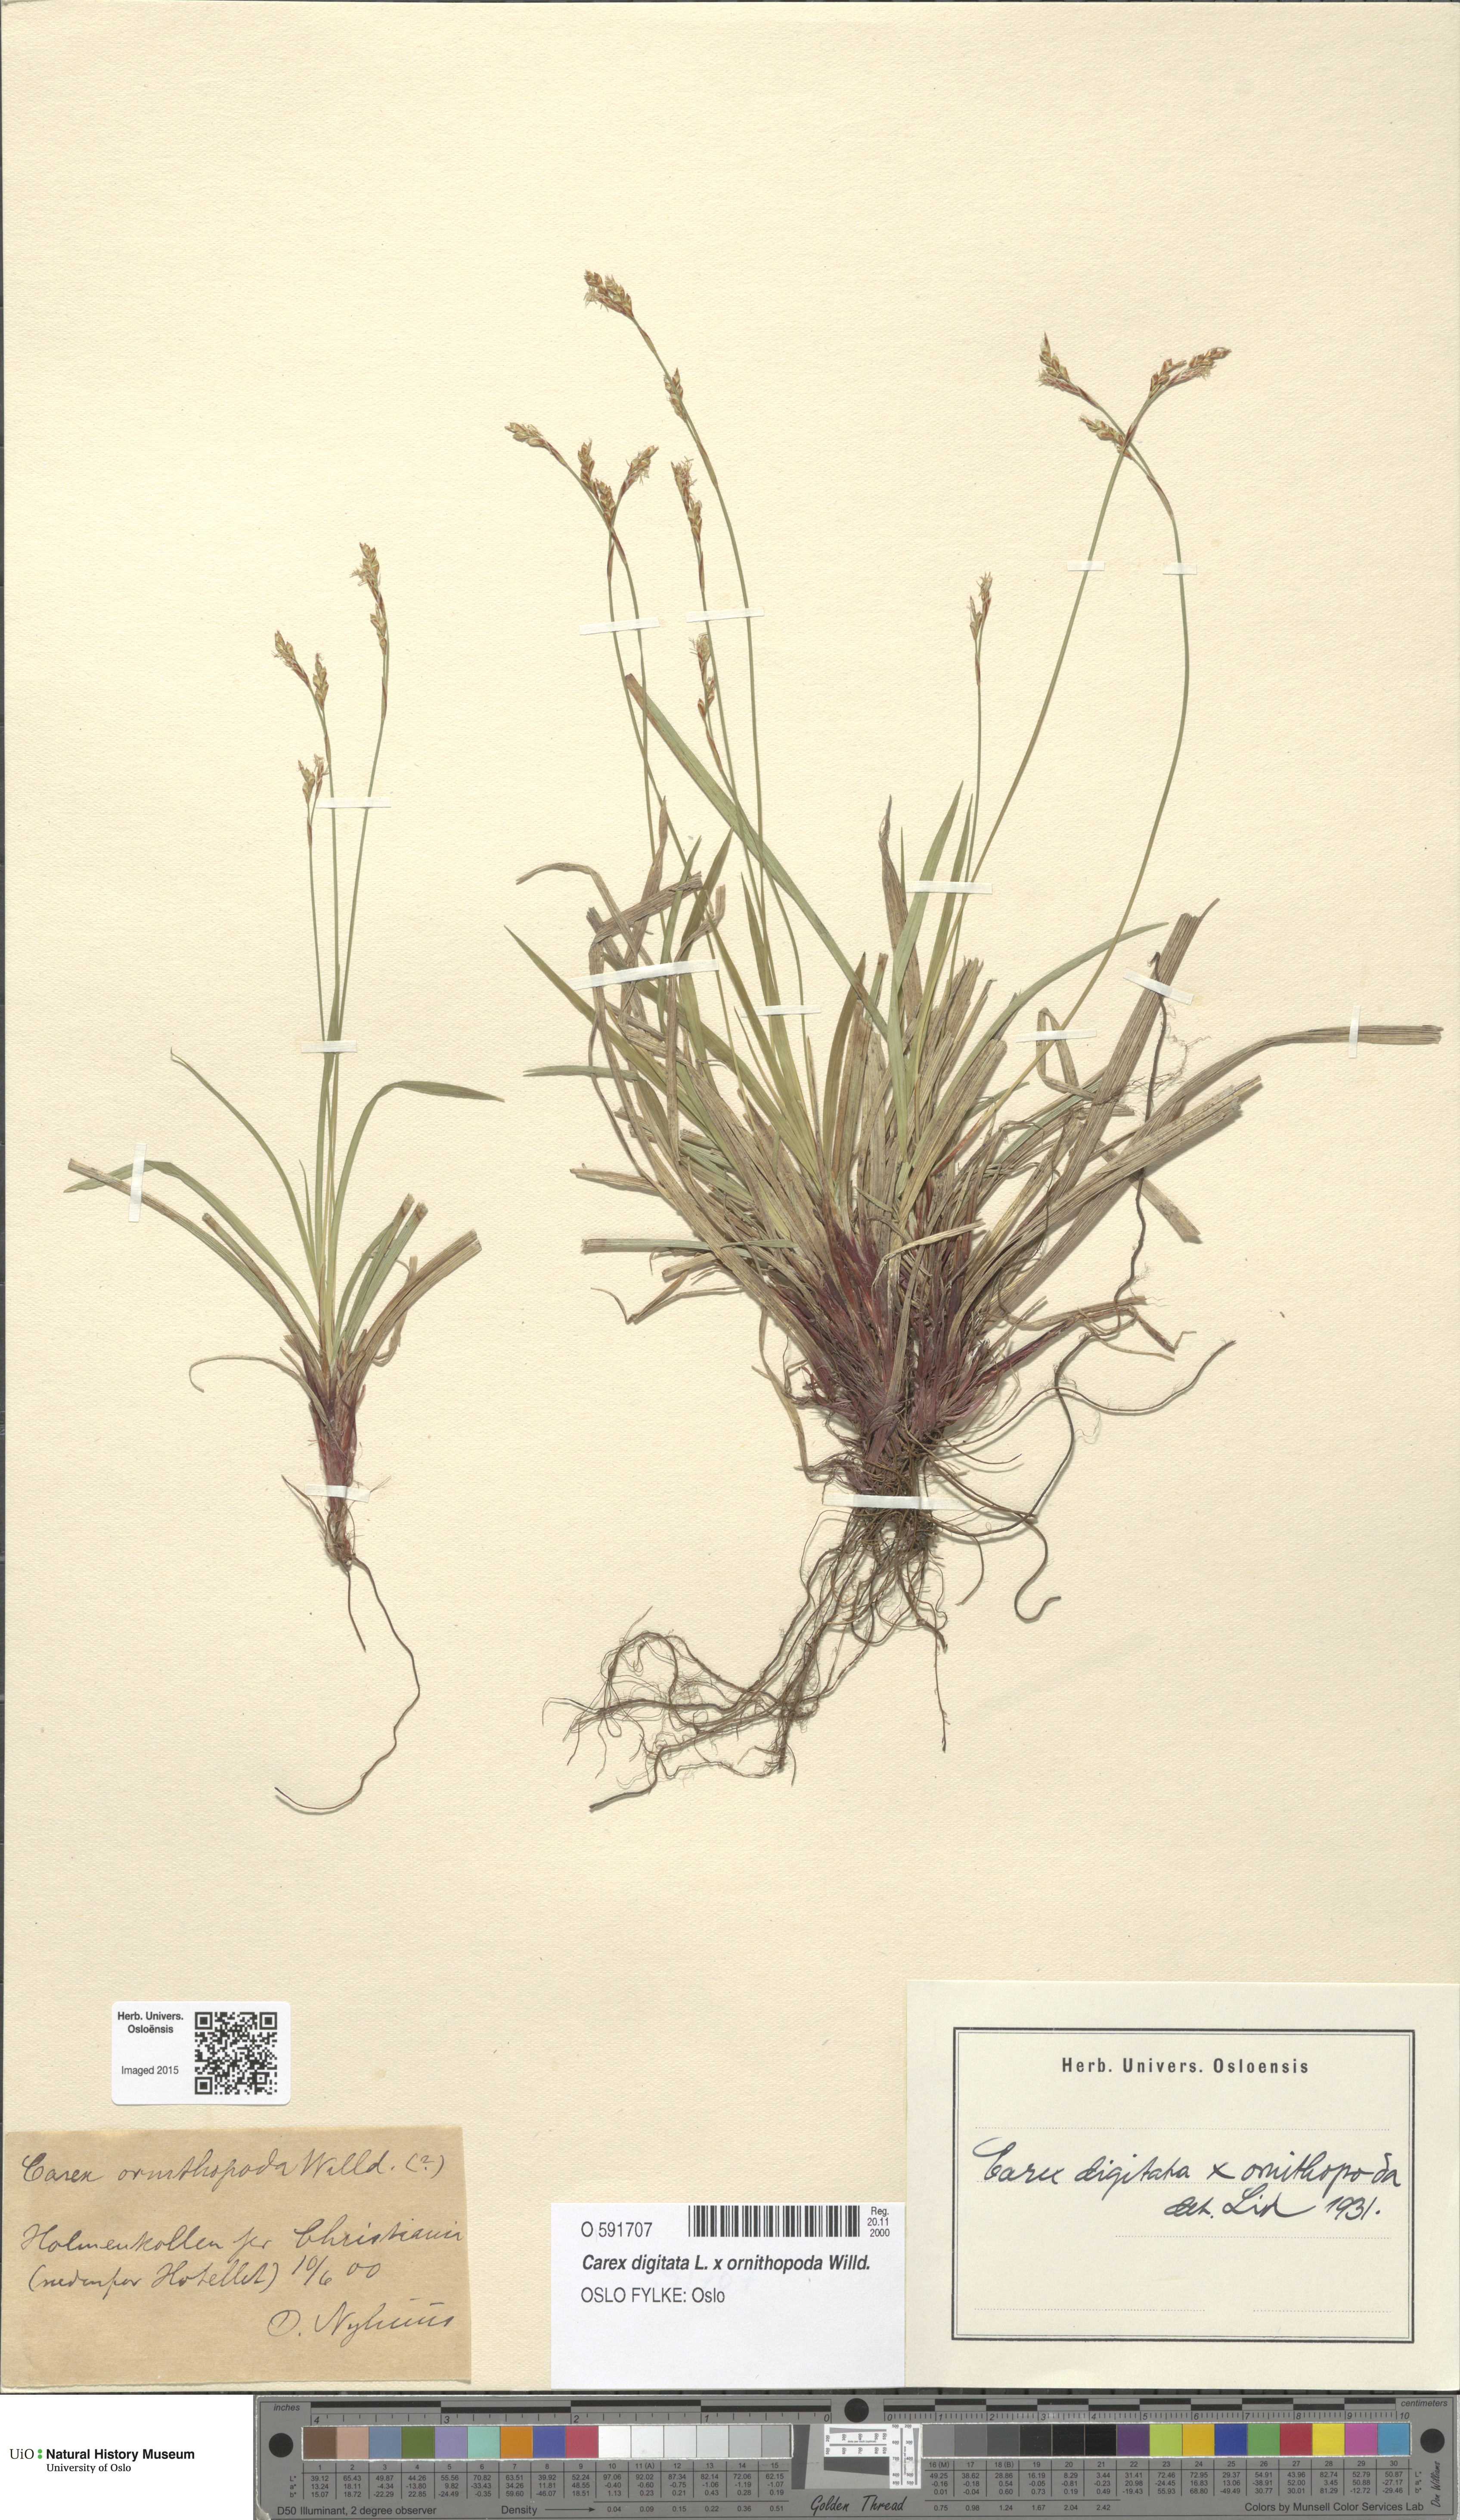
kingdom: Plantae
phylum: Tracheophyta
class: Liliopsida
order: Poales
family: Cyperaceae
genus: Carex
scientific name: Carex
